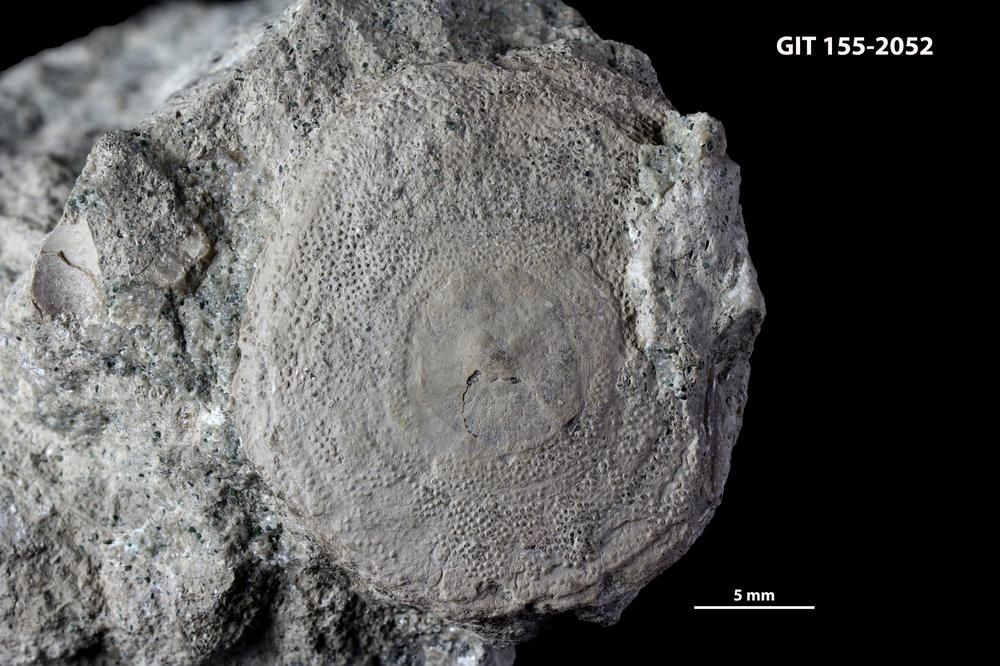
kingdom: Animalia
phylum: Bryozoa
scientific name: Bryozoa
